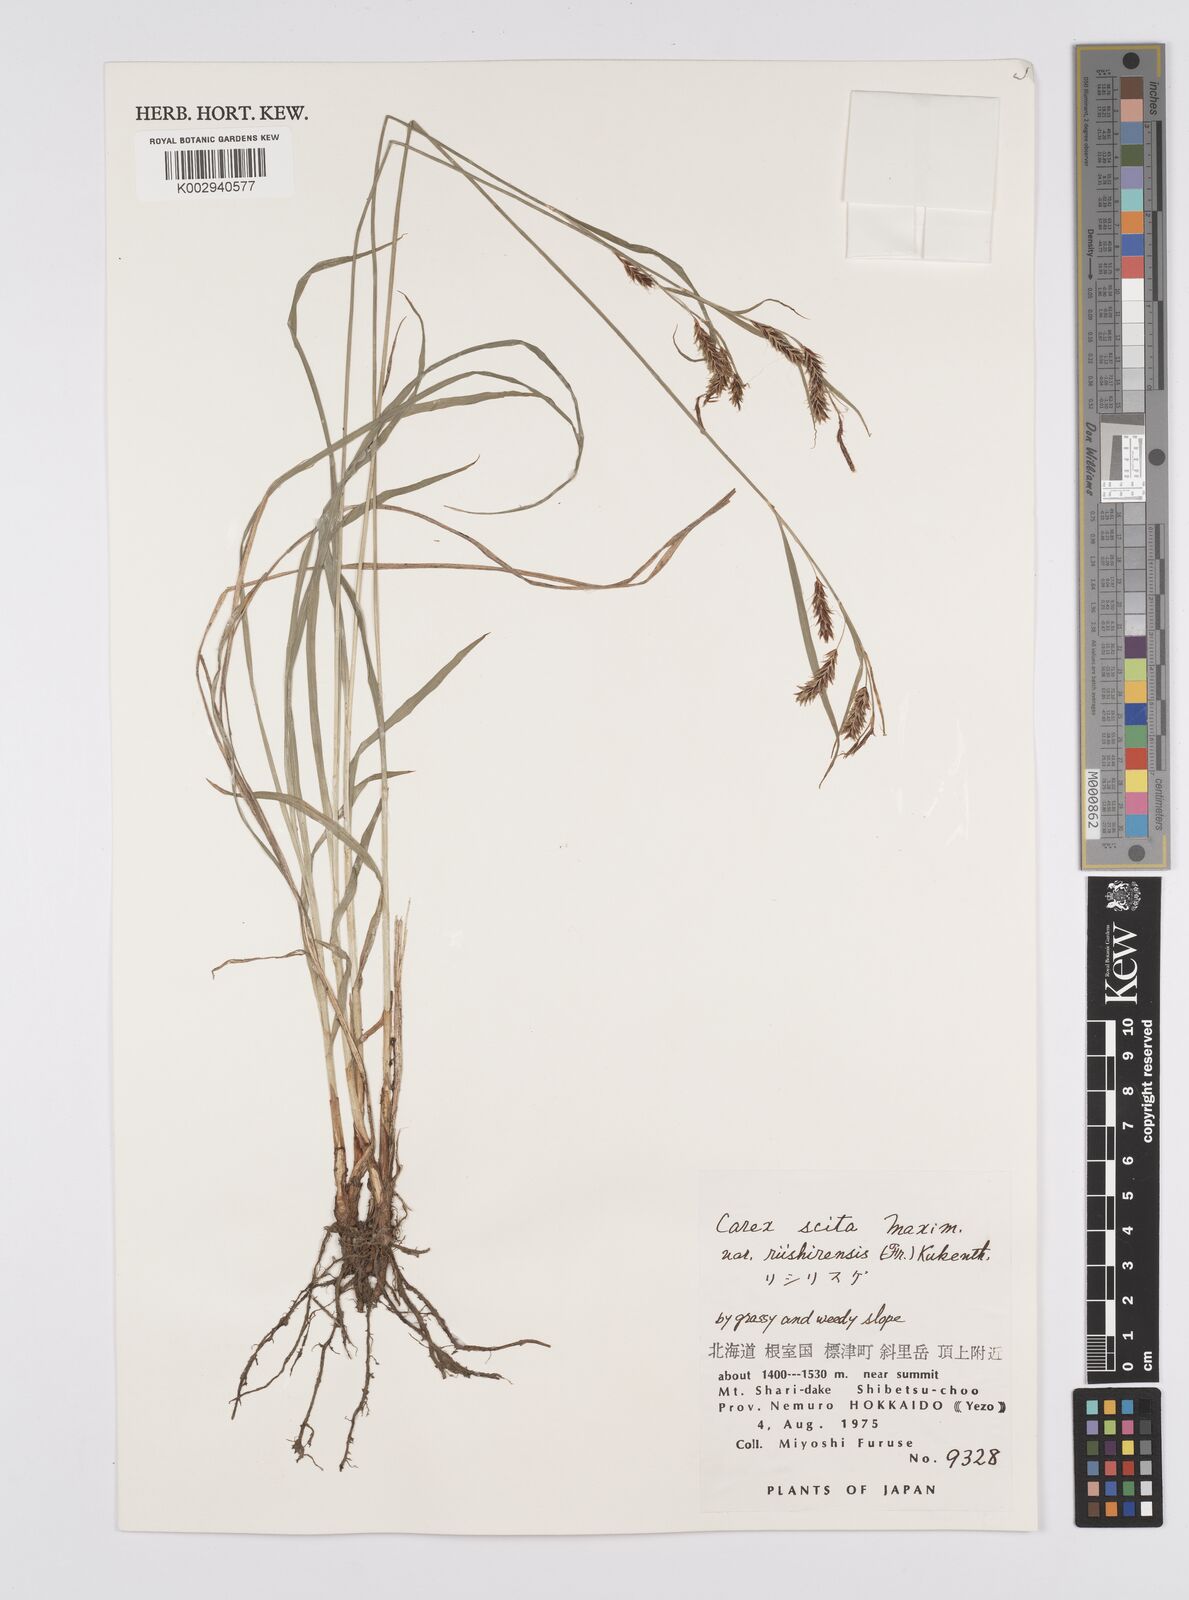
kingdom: Plantae
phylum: Tracheophyta
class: Liliopsida
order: Poales
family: Cyperaceae
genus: Carex
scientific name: Carex scita
